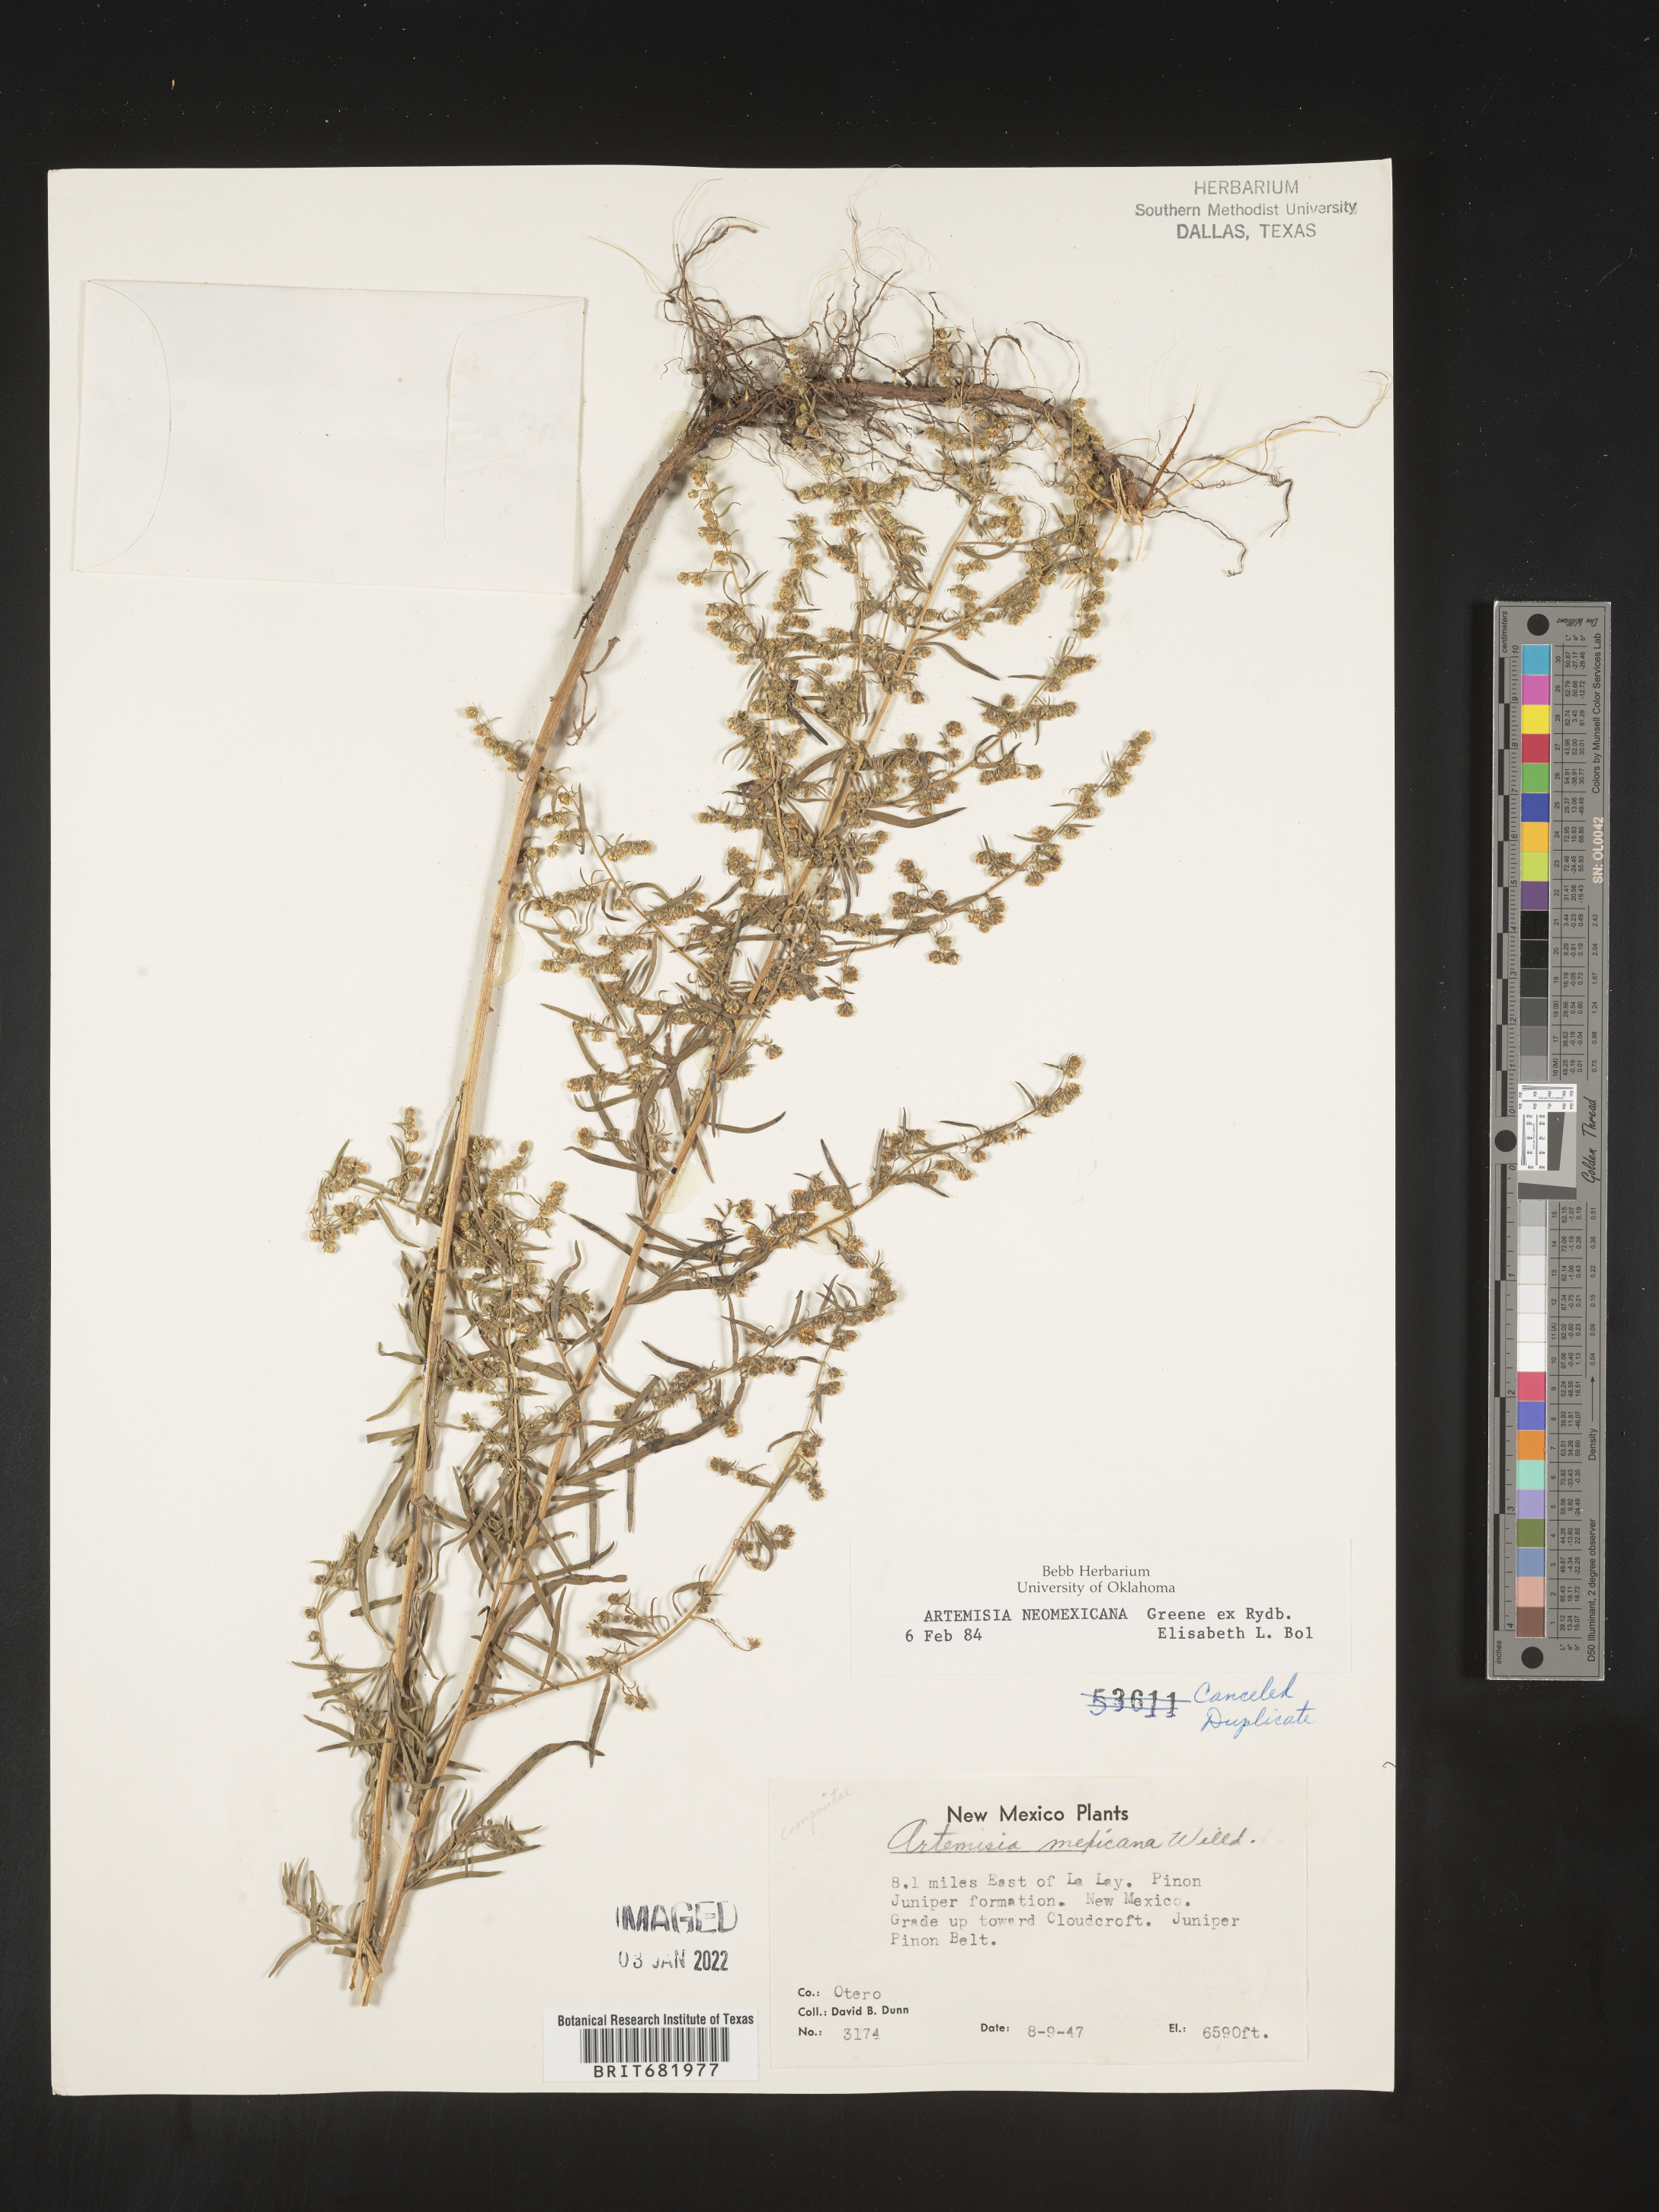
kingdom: Plantae
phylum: Tracheophyta
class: Magnoliopsida
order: Asterales
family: Asteraceae
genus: Artemisia
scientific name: Artemisia ludoviciana
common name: Western mugwort
